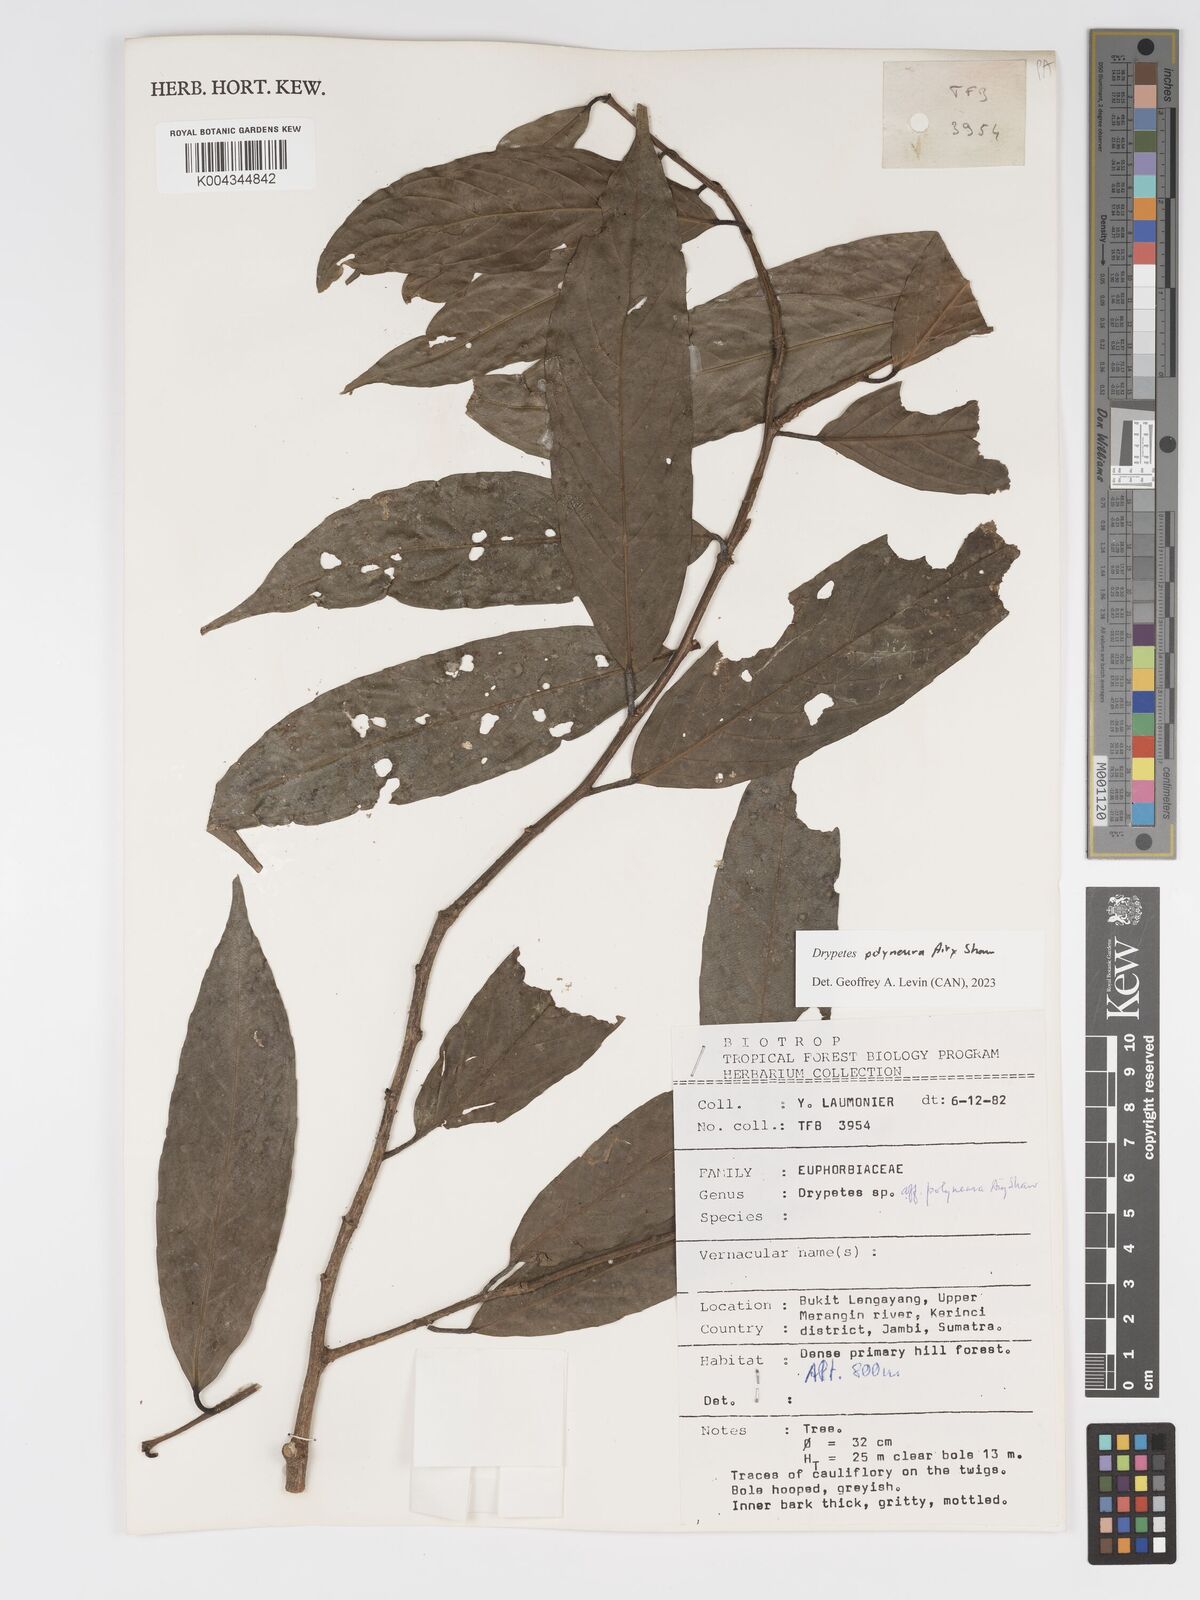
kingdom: Plantae
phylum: Tracheophyta
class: Magnoliopsida
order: Malpighiales
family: Putranjivaceae
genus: Drypetes
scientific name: Drypetes polyneura
